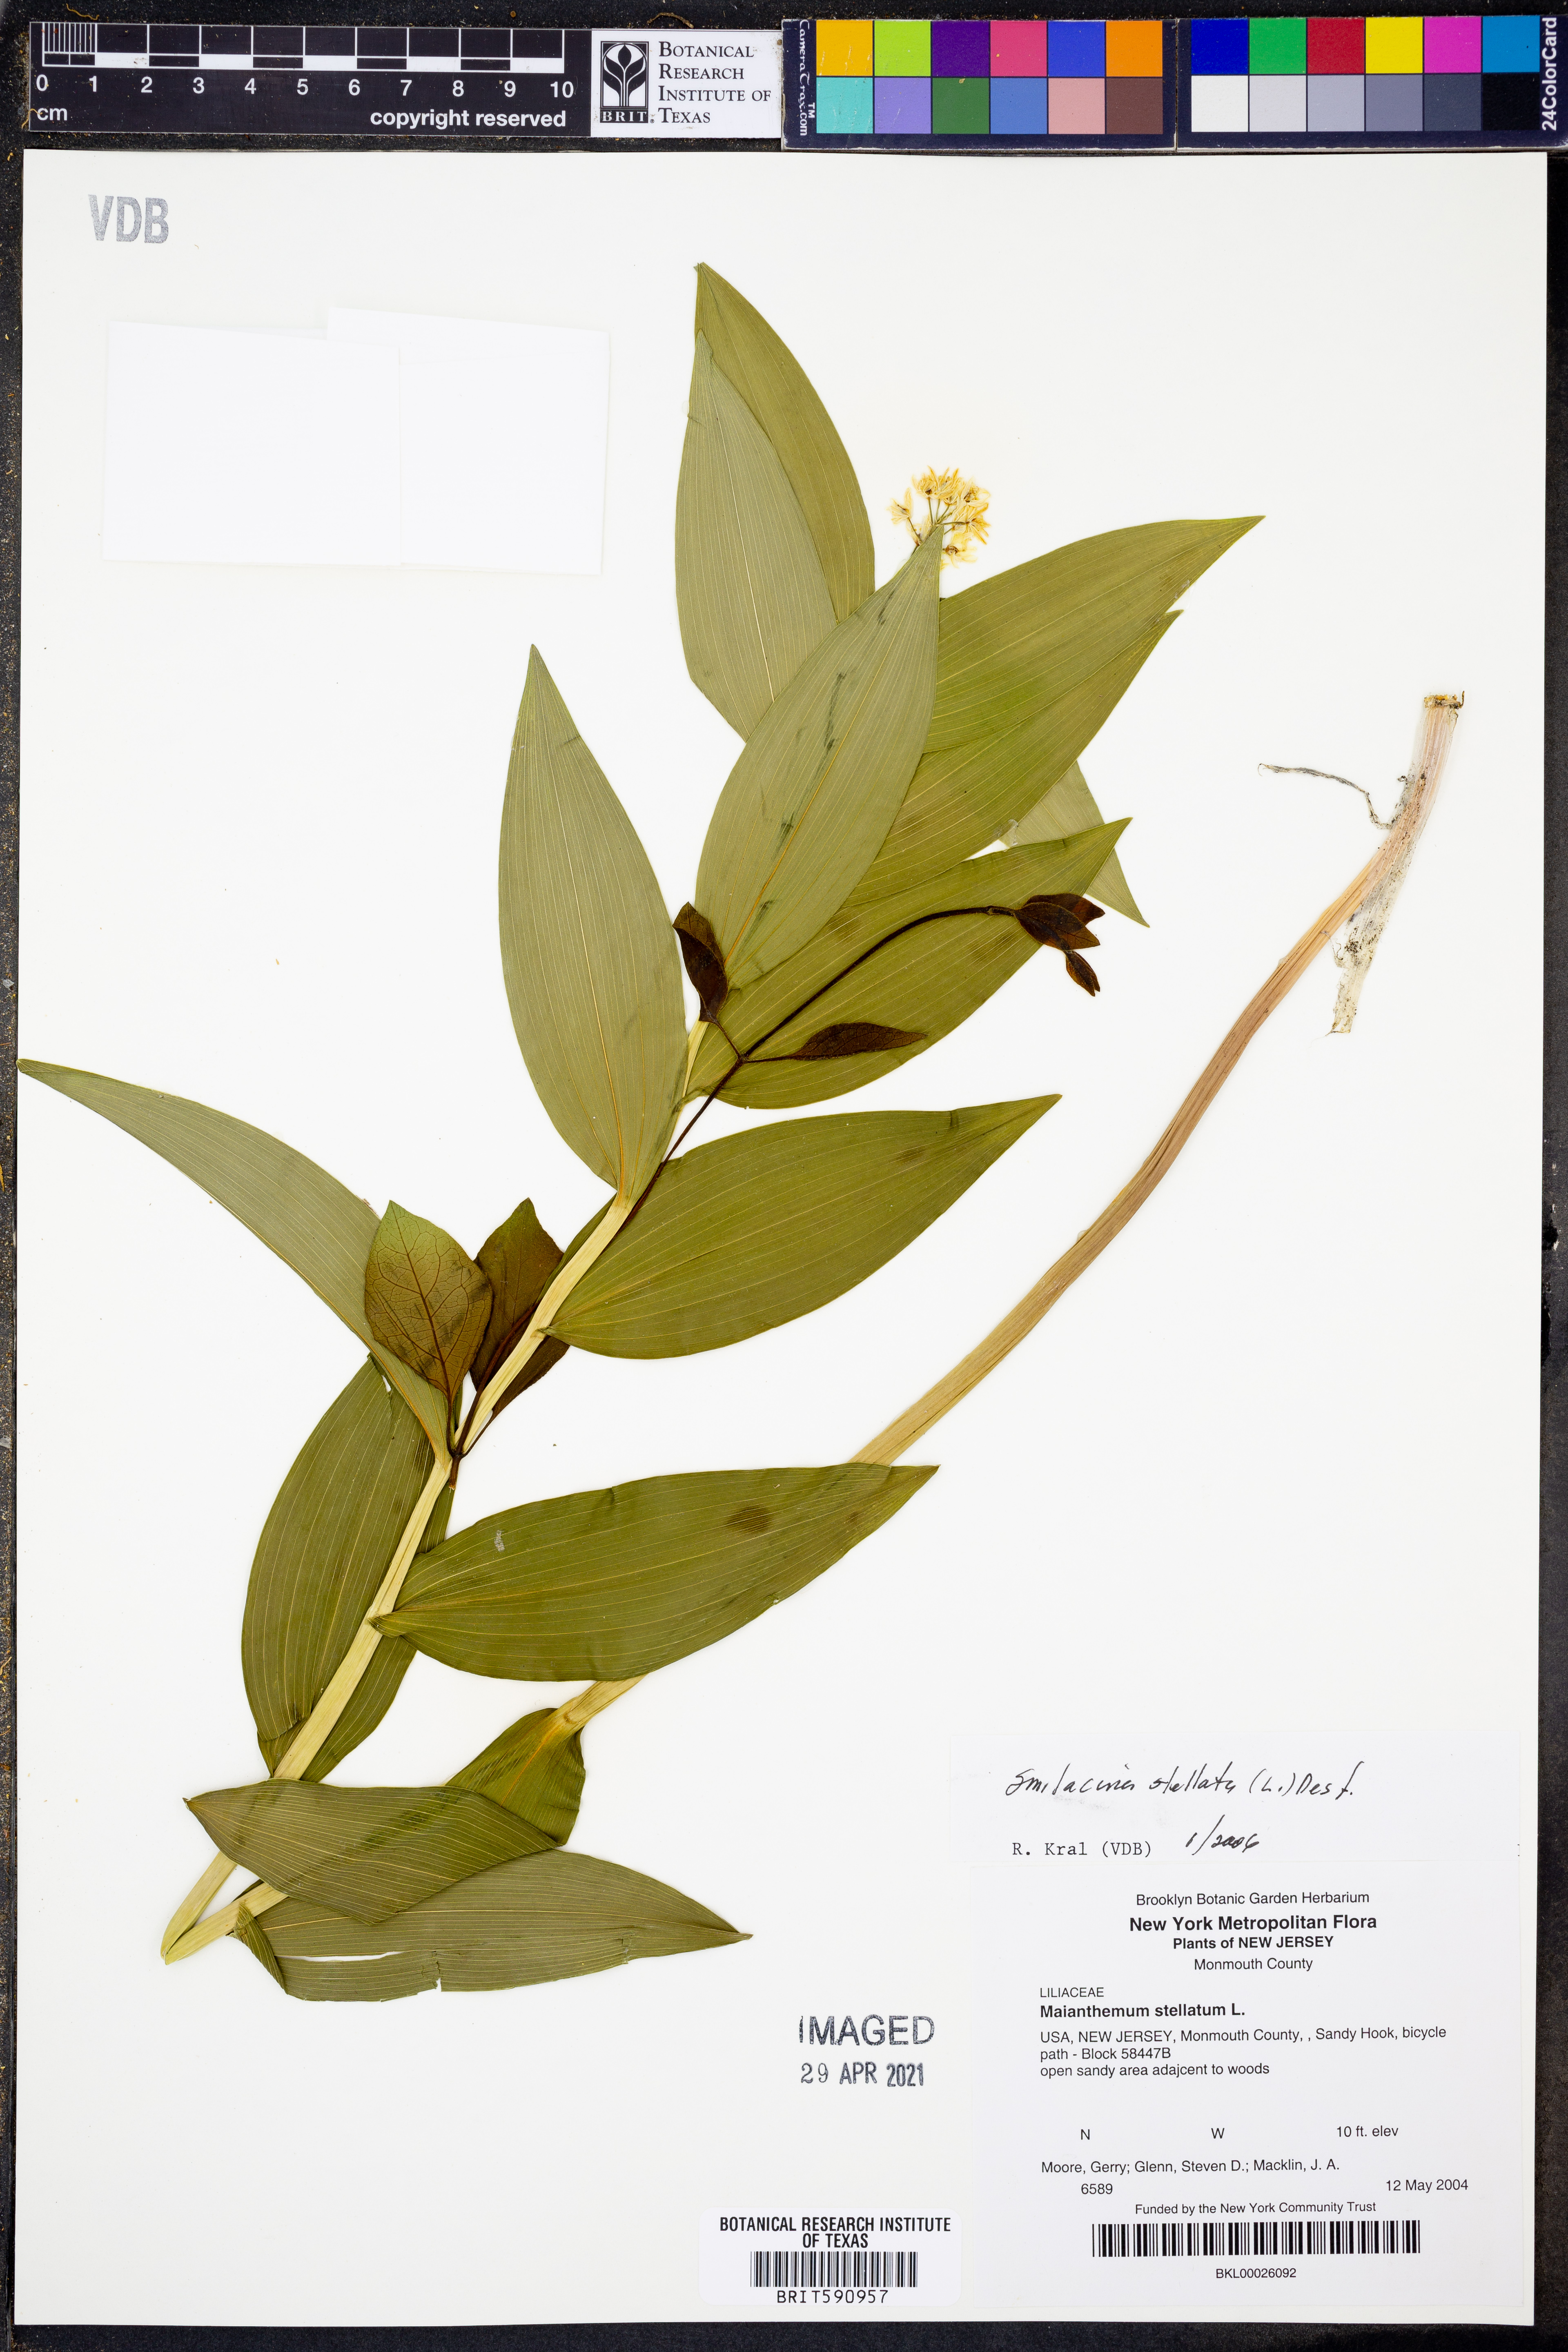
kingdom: Plantae
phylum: Tracheophyta
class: Liliopsida
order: Asparagales
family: Asparagaceae
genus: Maianthemum
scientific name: Maianthemum stellatum
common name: Little false solomon's seal
